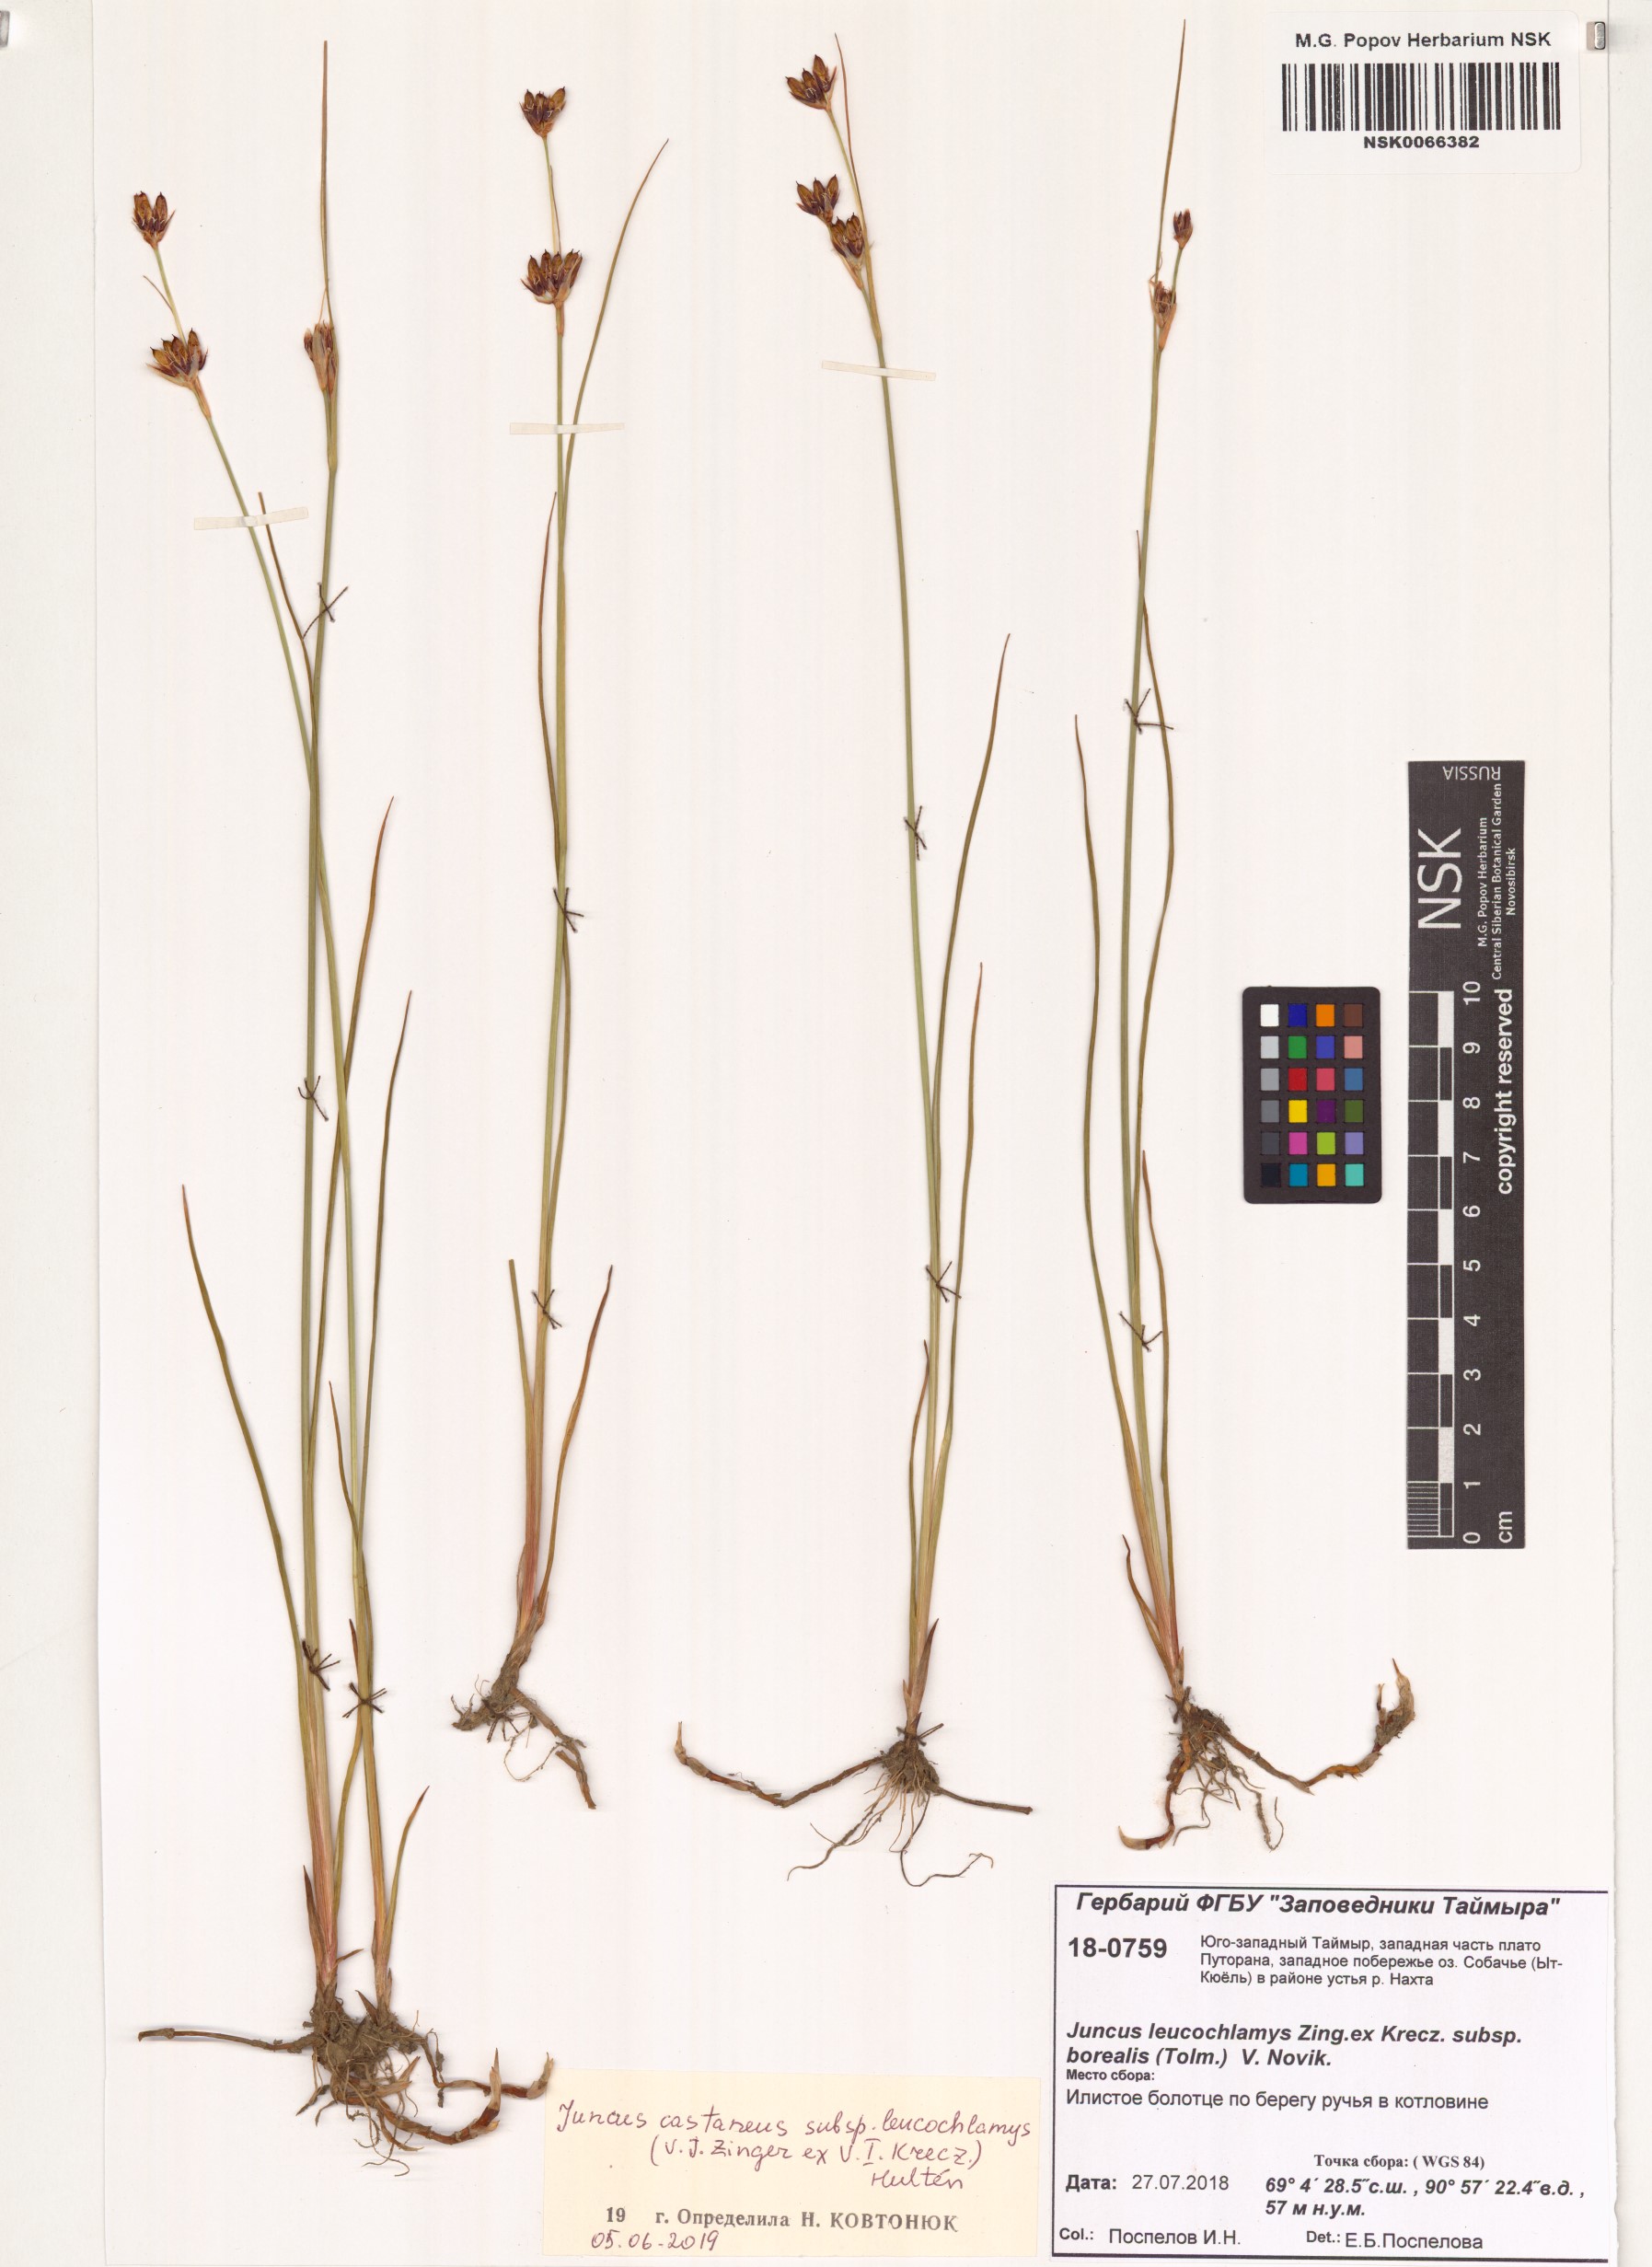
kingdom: Plantae
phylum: Tracheophyta
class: Liliopsida
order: Poales
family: Juncaceae
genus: Juncus
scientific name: Juncus castaneus
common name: Chestnut rush
